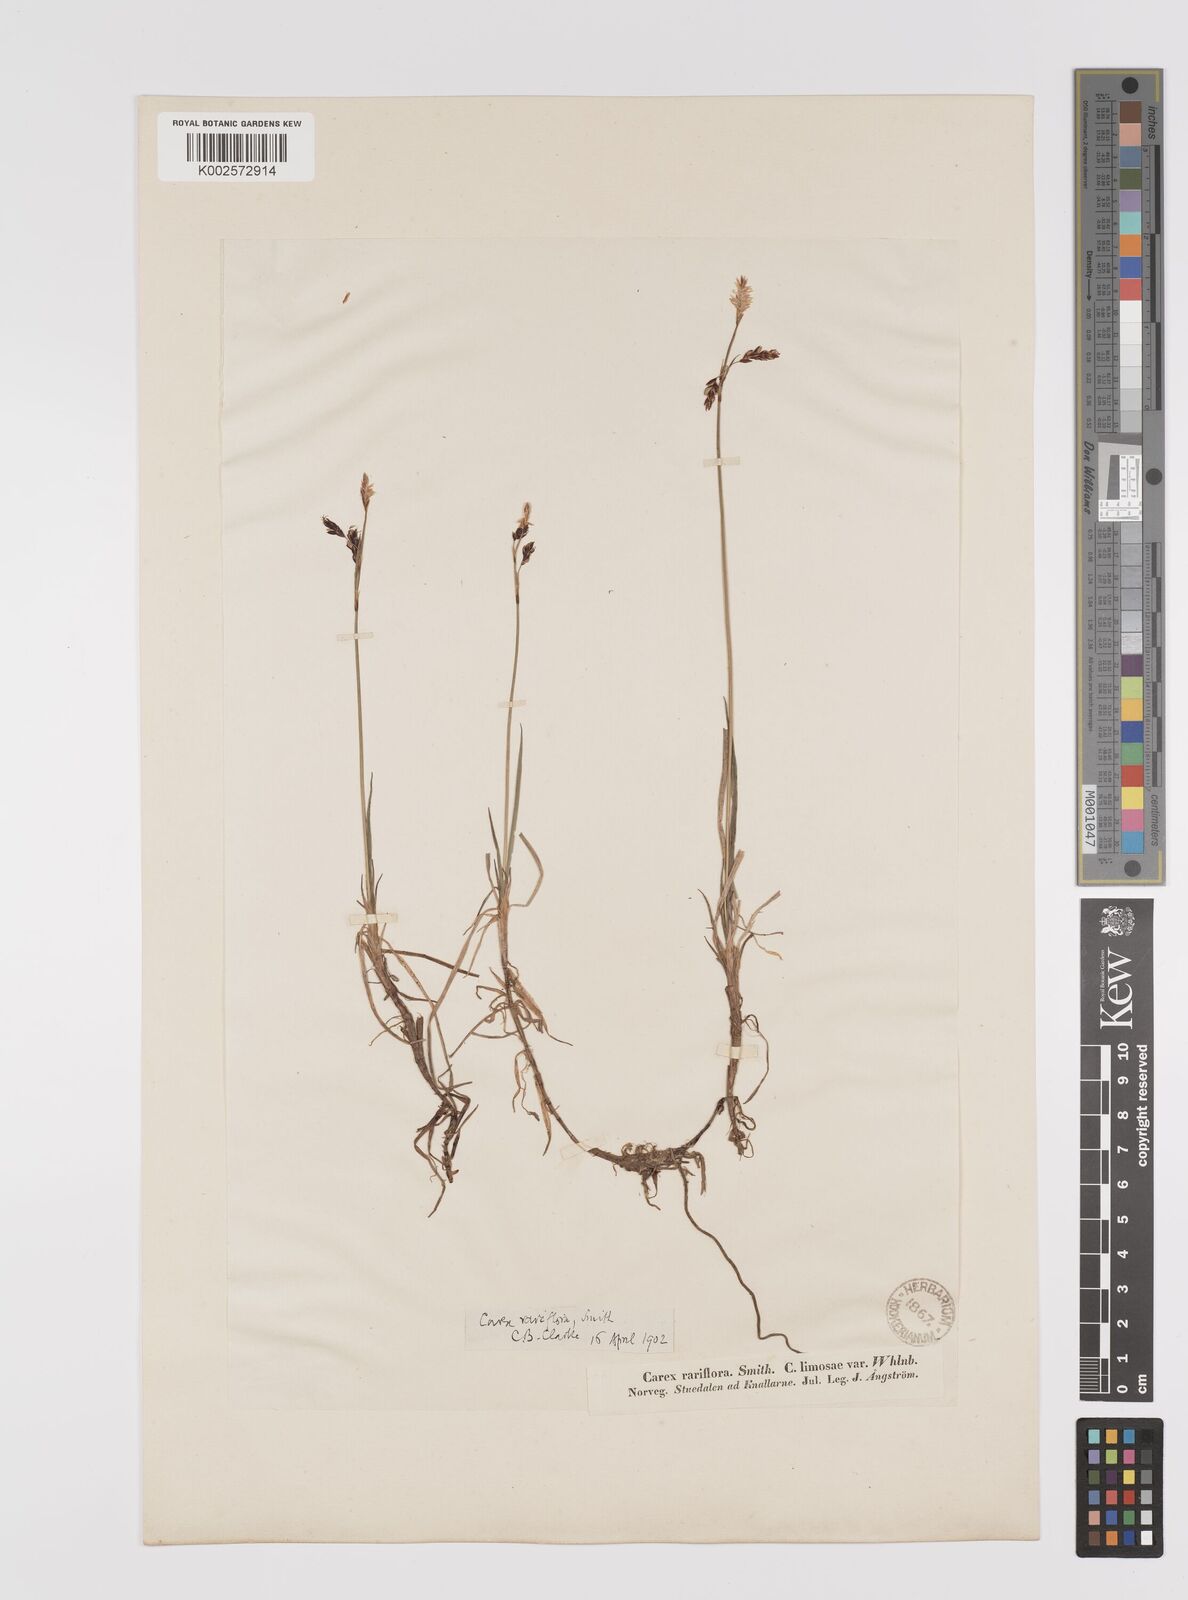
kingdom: Plantae
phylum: Tracheophyta
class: Liliopsida
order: Poales
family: Cyperaceae
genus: Carex
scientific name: Carex rariflora
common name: Loose-flowered alpine sedge
